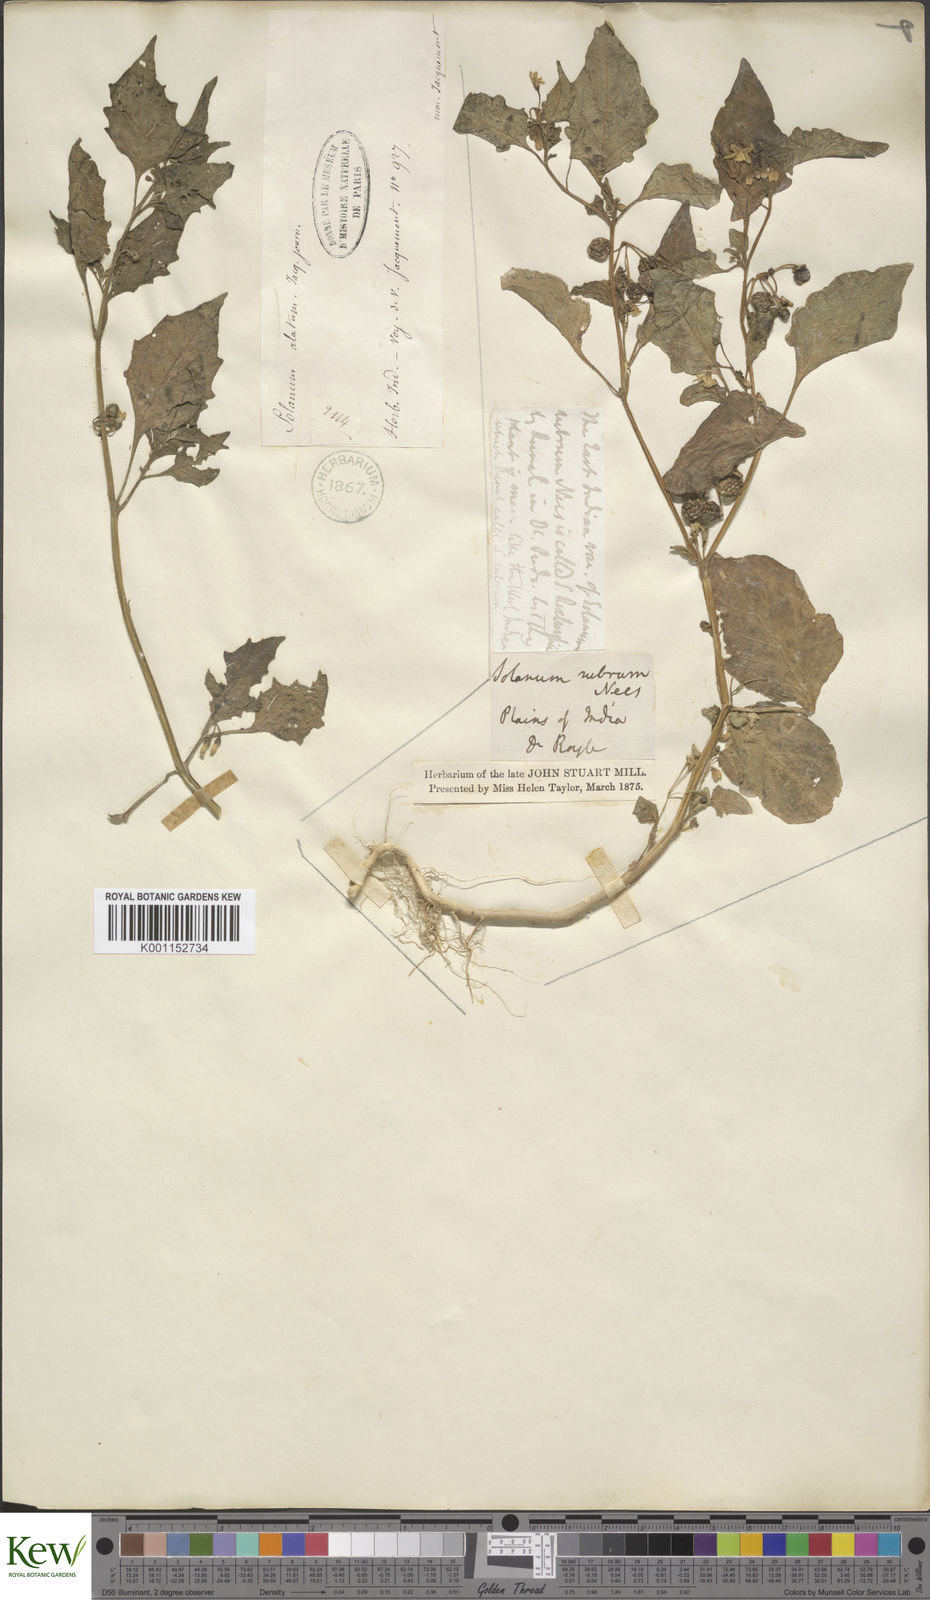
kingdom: Plantae
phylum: Tracheophyta
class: Magnoliopsida
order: Solanales
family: Solanaceae
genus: Solanum
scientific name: Solanum nigrum
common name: Black nightshade
